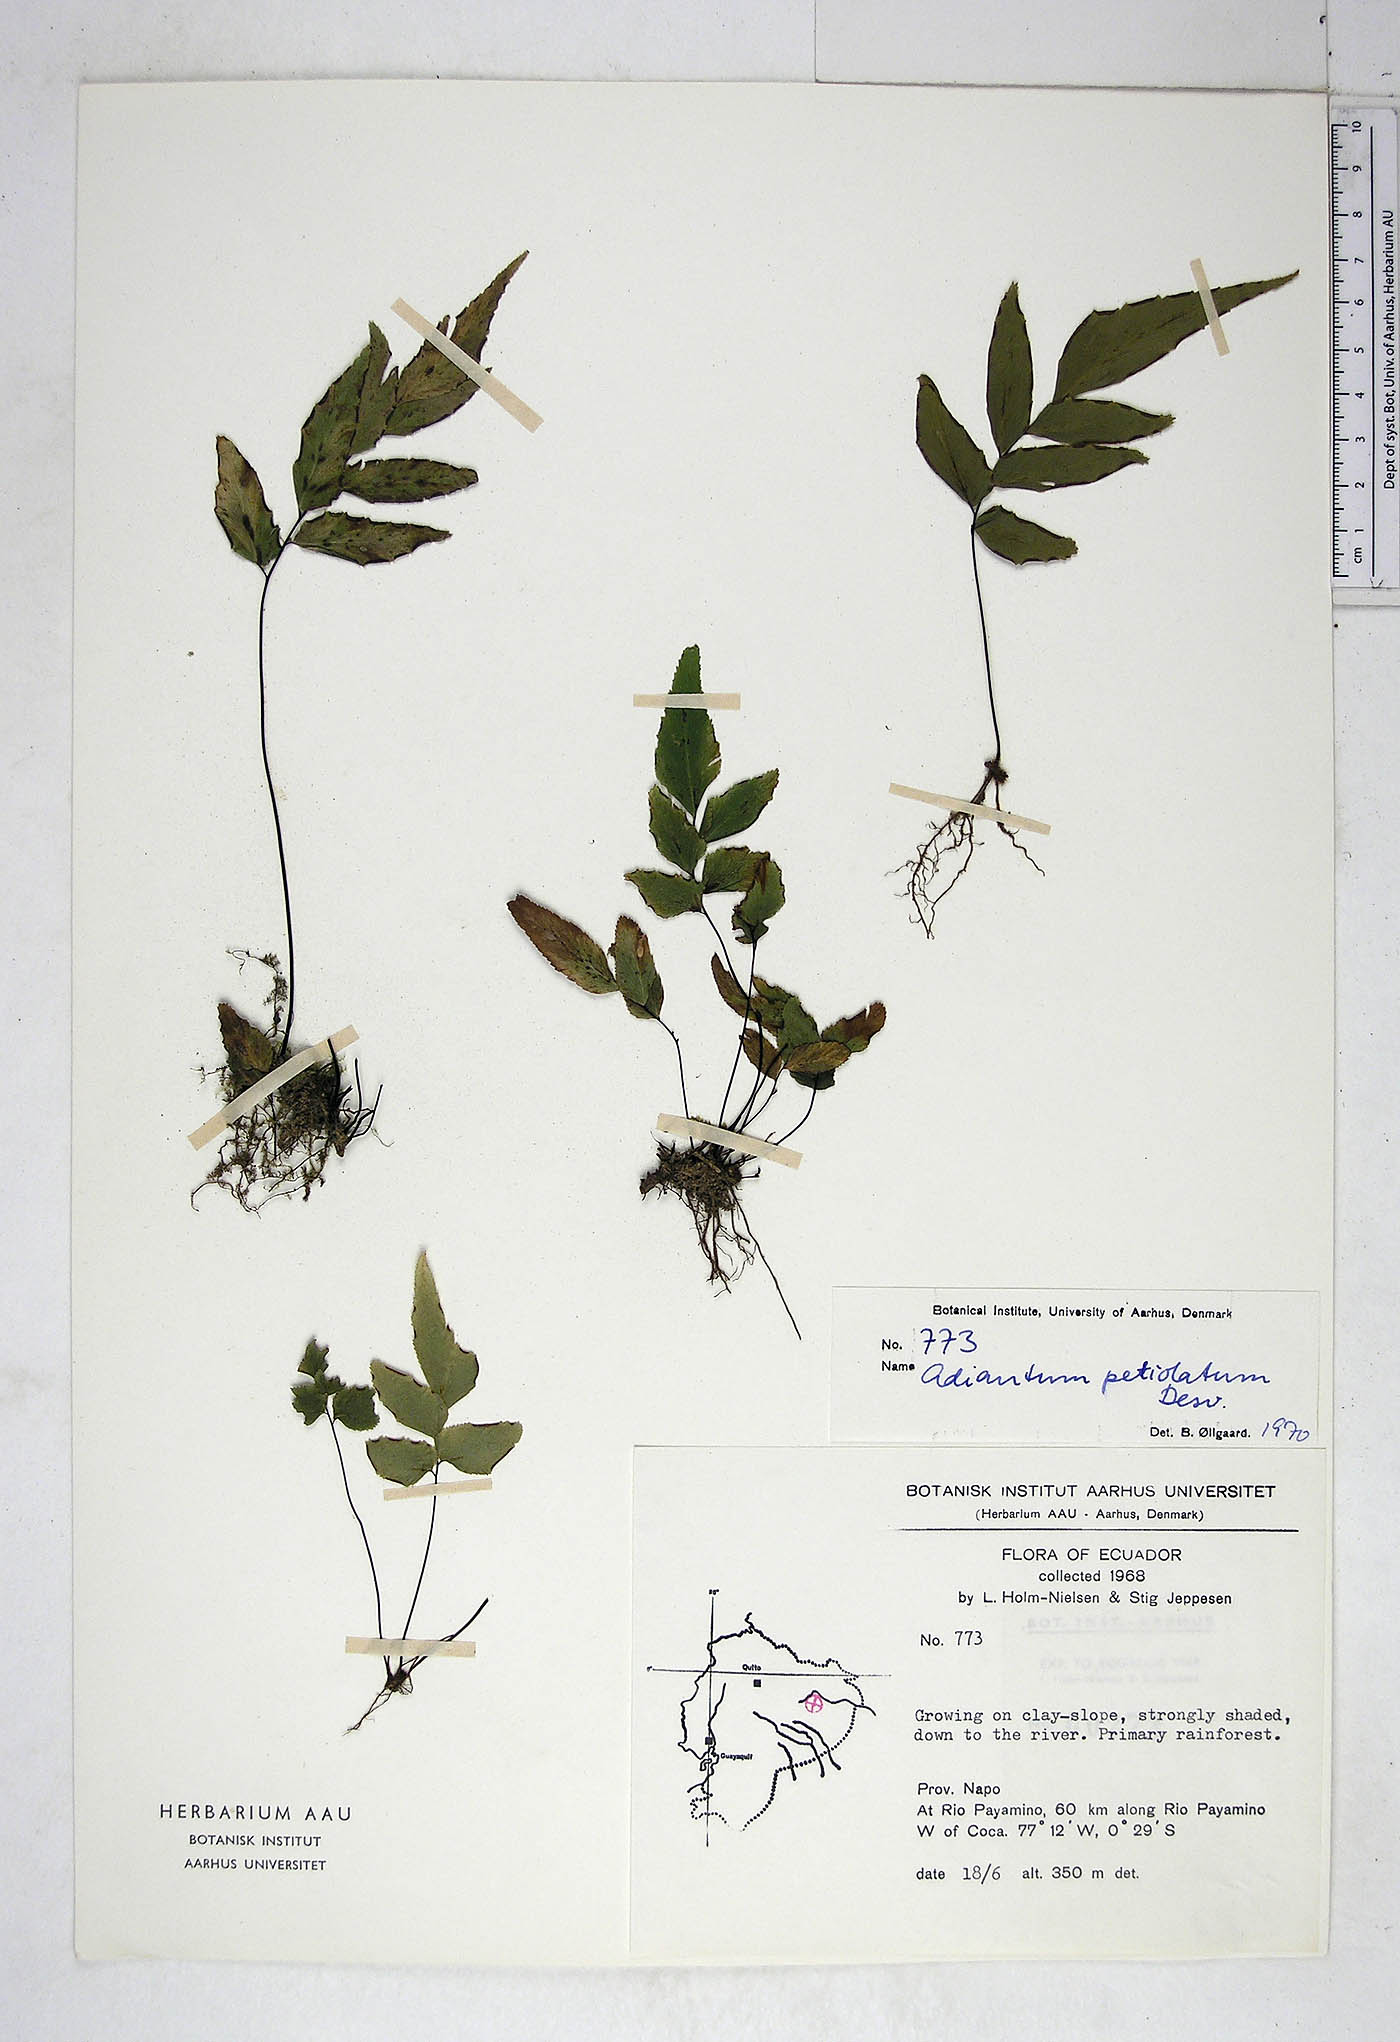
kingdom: Plantae
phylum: Tracheophyta
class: Polypodiopsida
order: Polypodiales
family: Pteridaceae
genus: Adiantum
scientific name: Adiantum petiolatum
